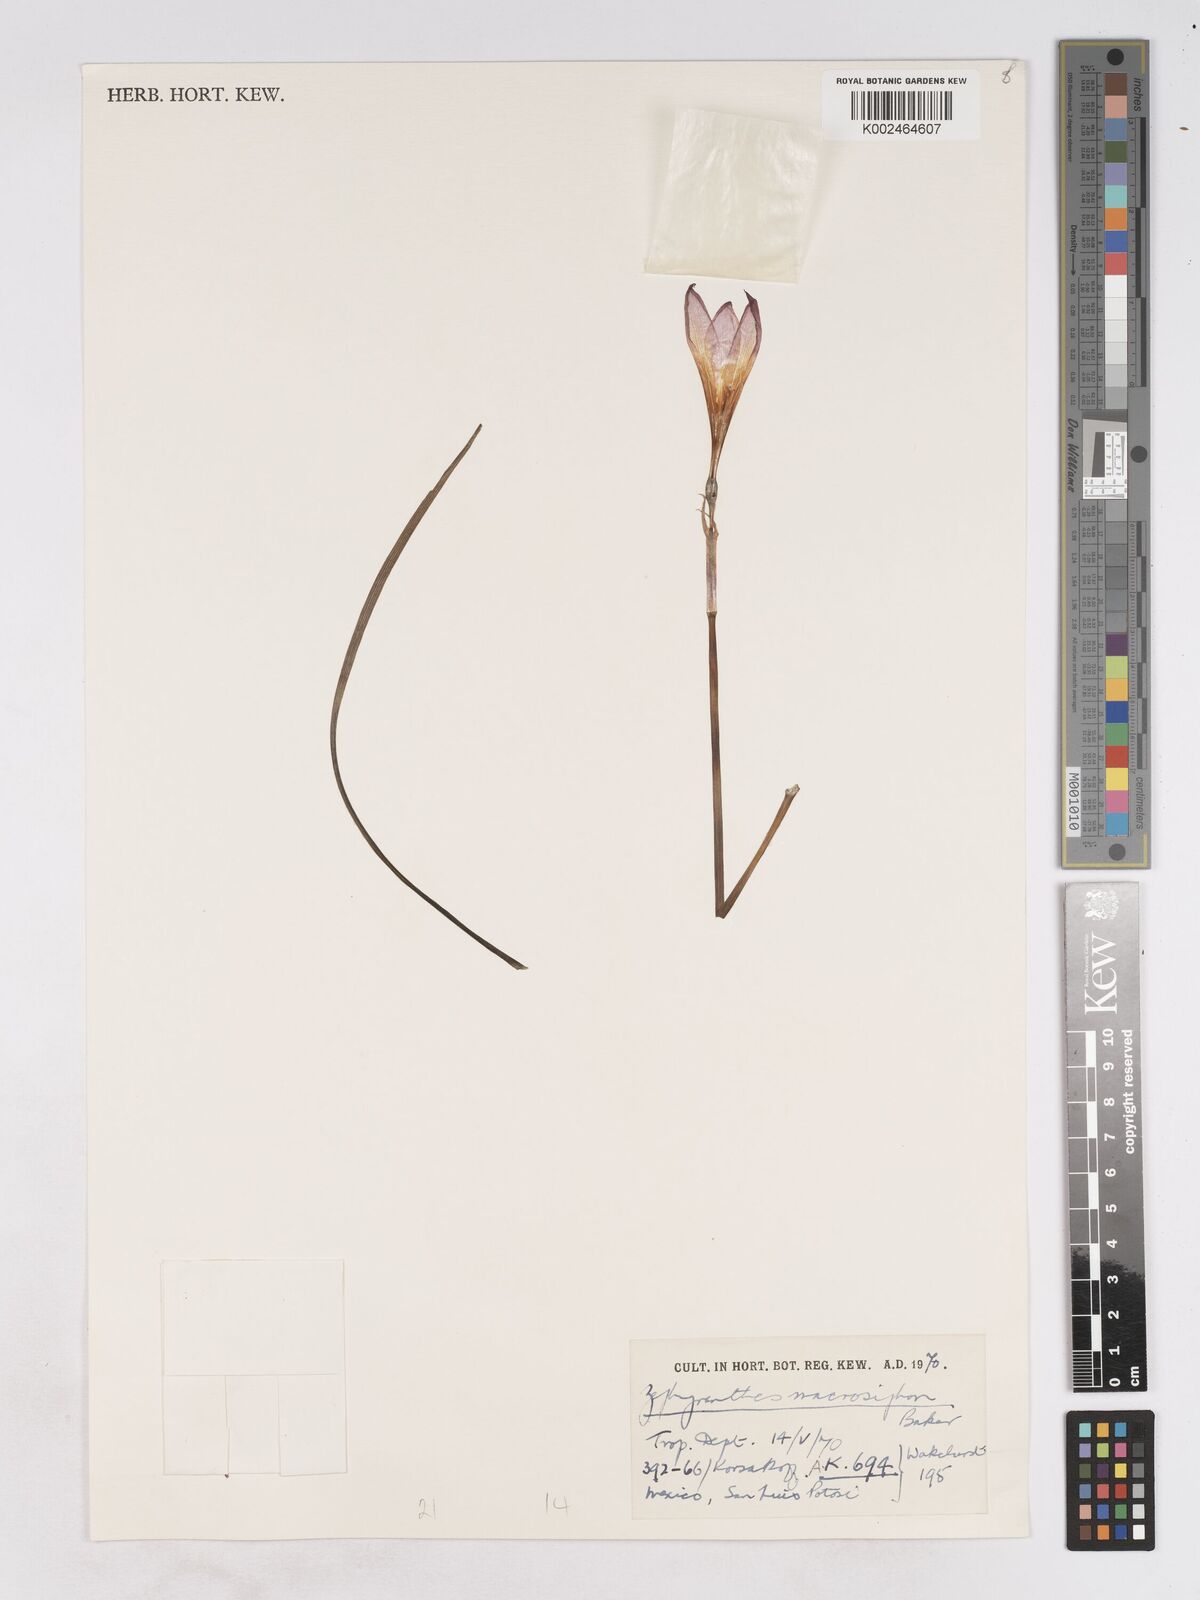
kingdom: Plantae
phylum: Tracheophyta
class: Liliopsida
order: Asparagales
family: Amaryllidaceae
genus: Zephyranthes
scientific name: Zephyranthes macrosiphon
